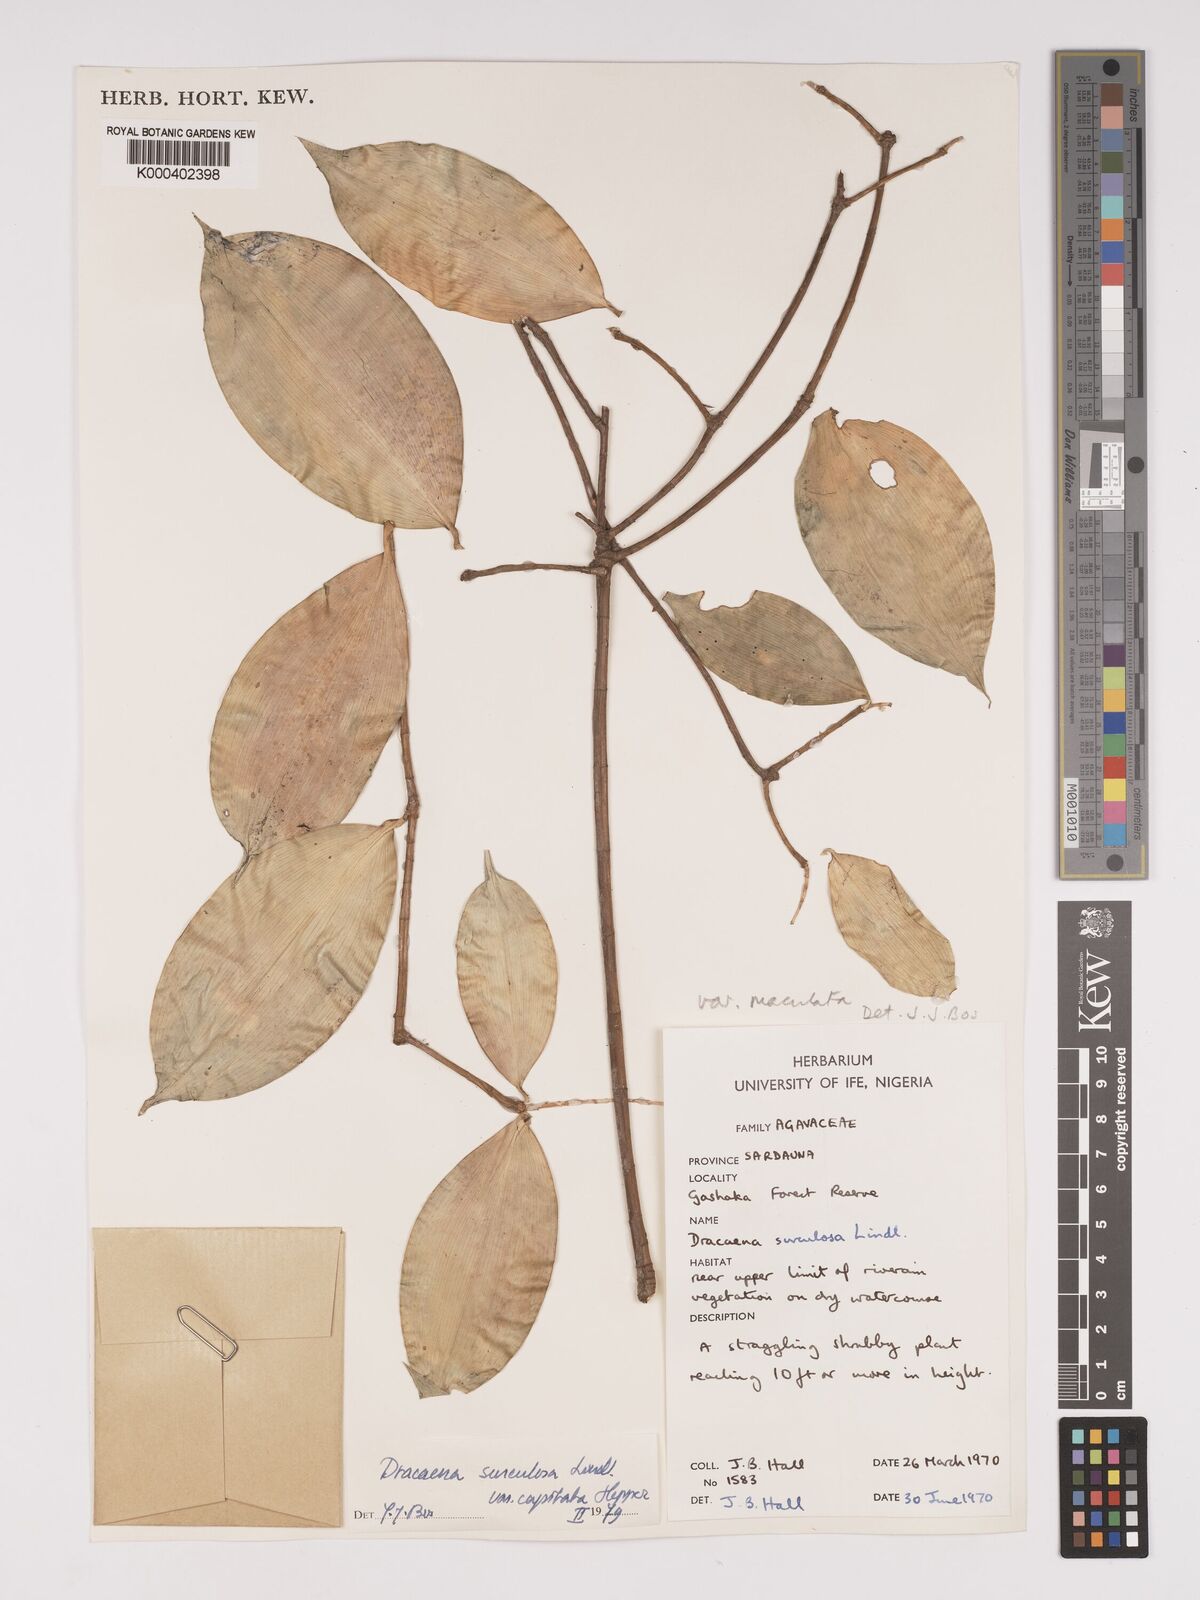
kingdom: Plantae
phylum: Tracheophyta
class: Liliopsida
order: Asparagales
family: Asparagaceae
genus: Dracaena
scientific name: Dracaena surculosa
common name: Spotted dracaena
